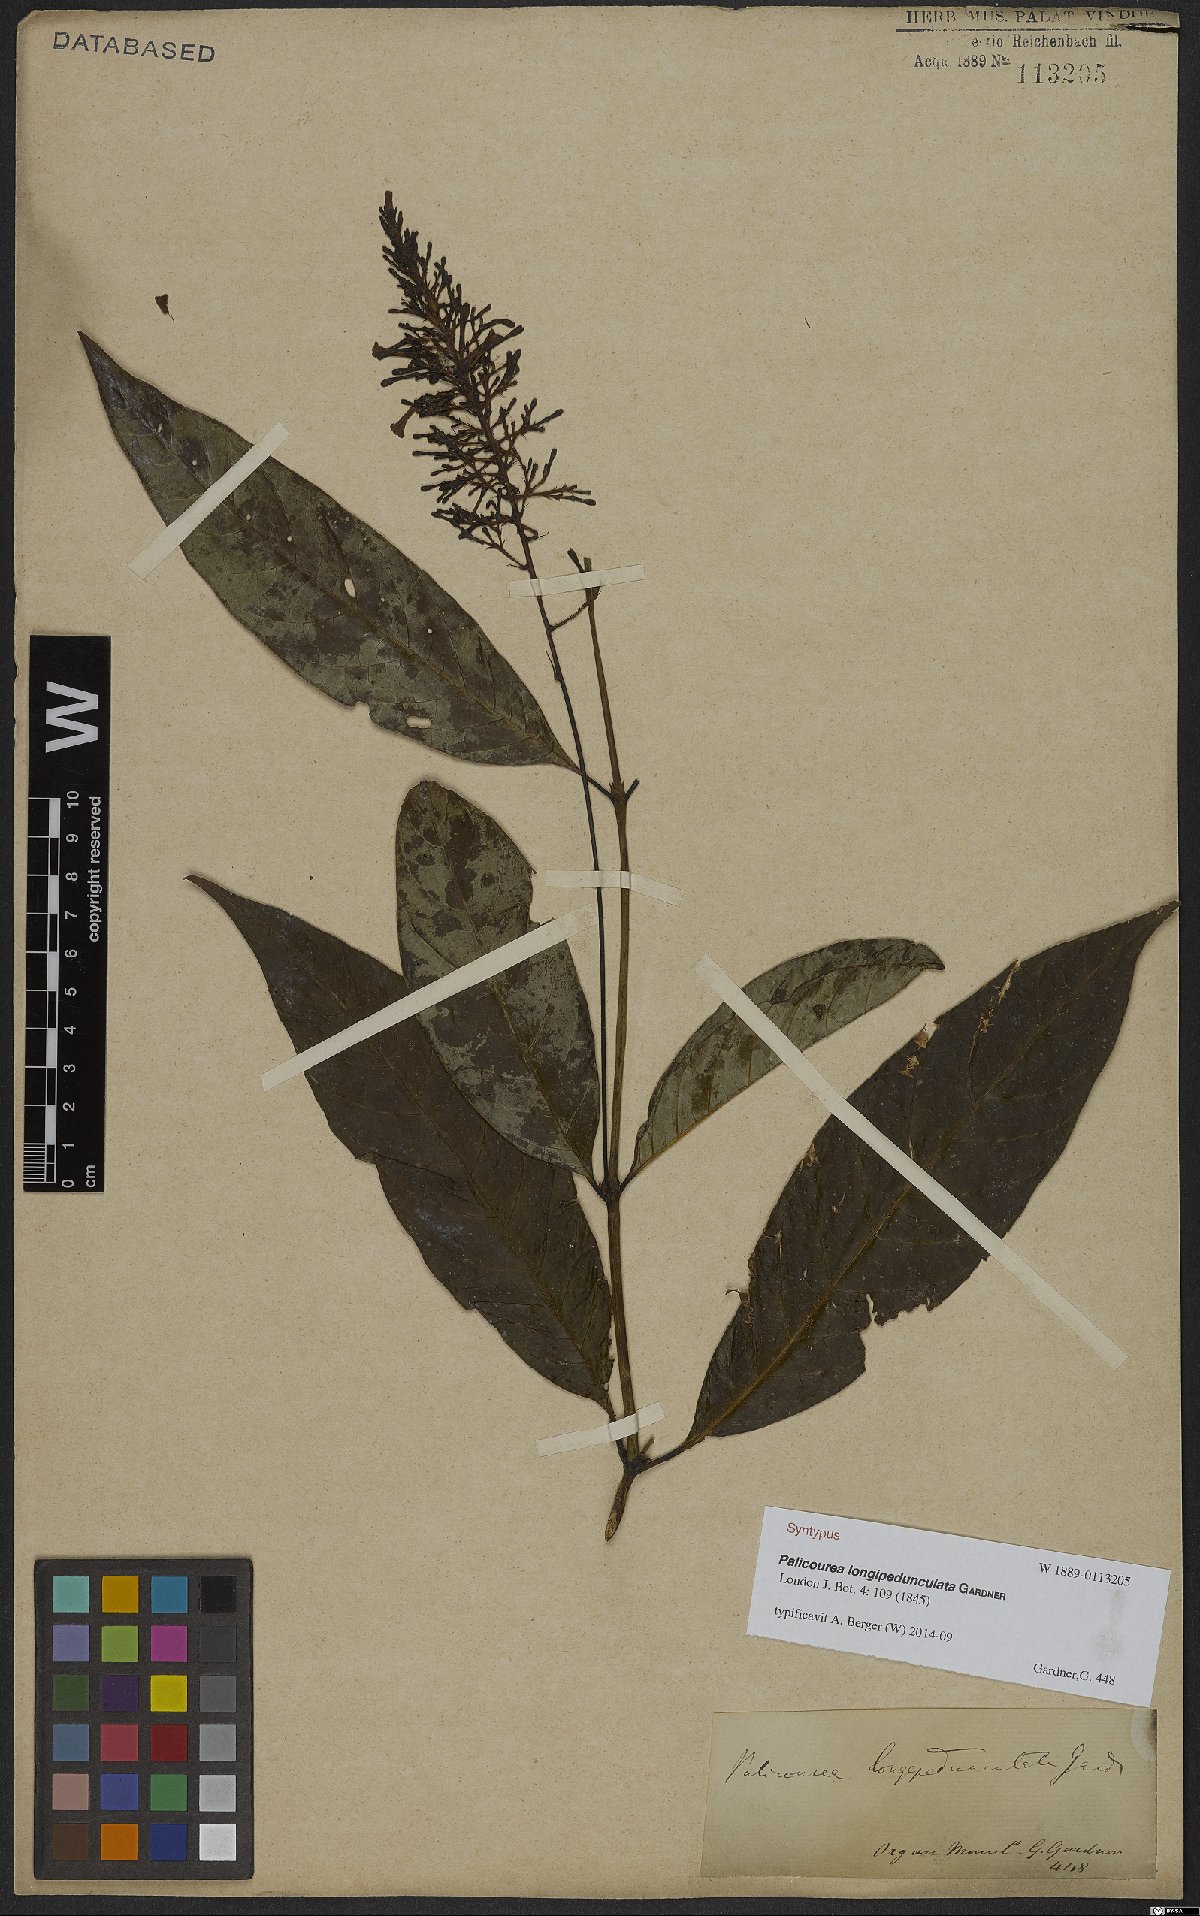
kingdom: Plantae
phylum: Tracheophyta
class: Magnoliopsida
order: Gentianales
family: Rubiaceae
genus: Palicourea
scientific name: Palicourea longipedunculata
